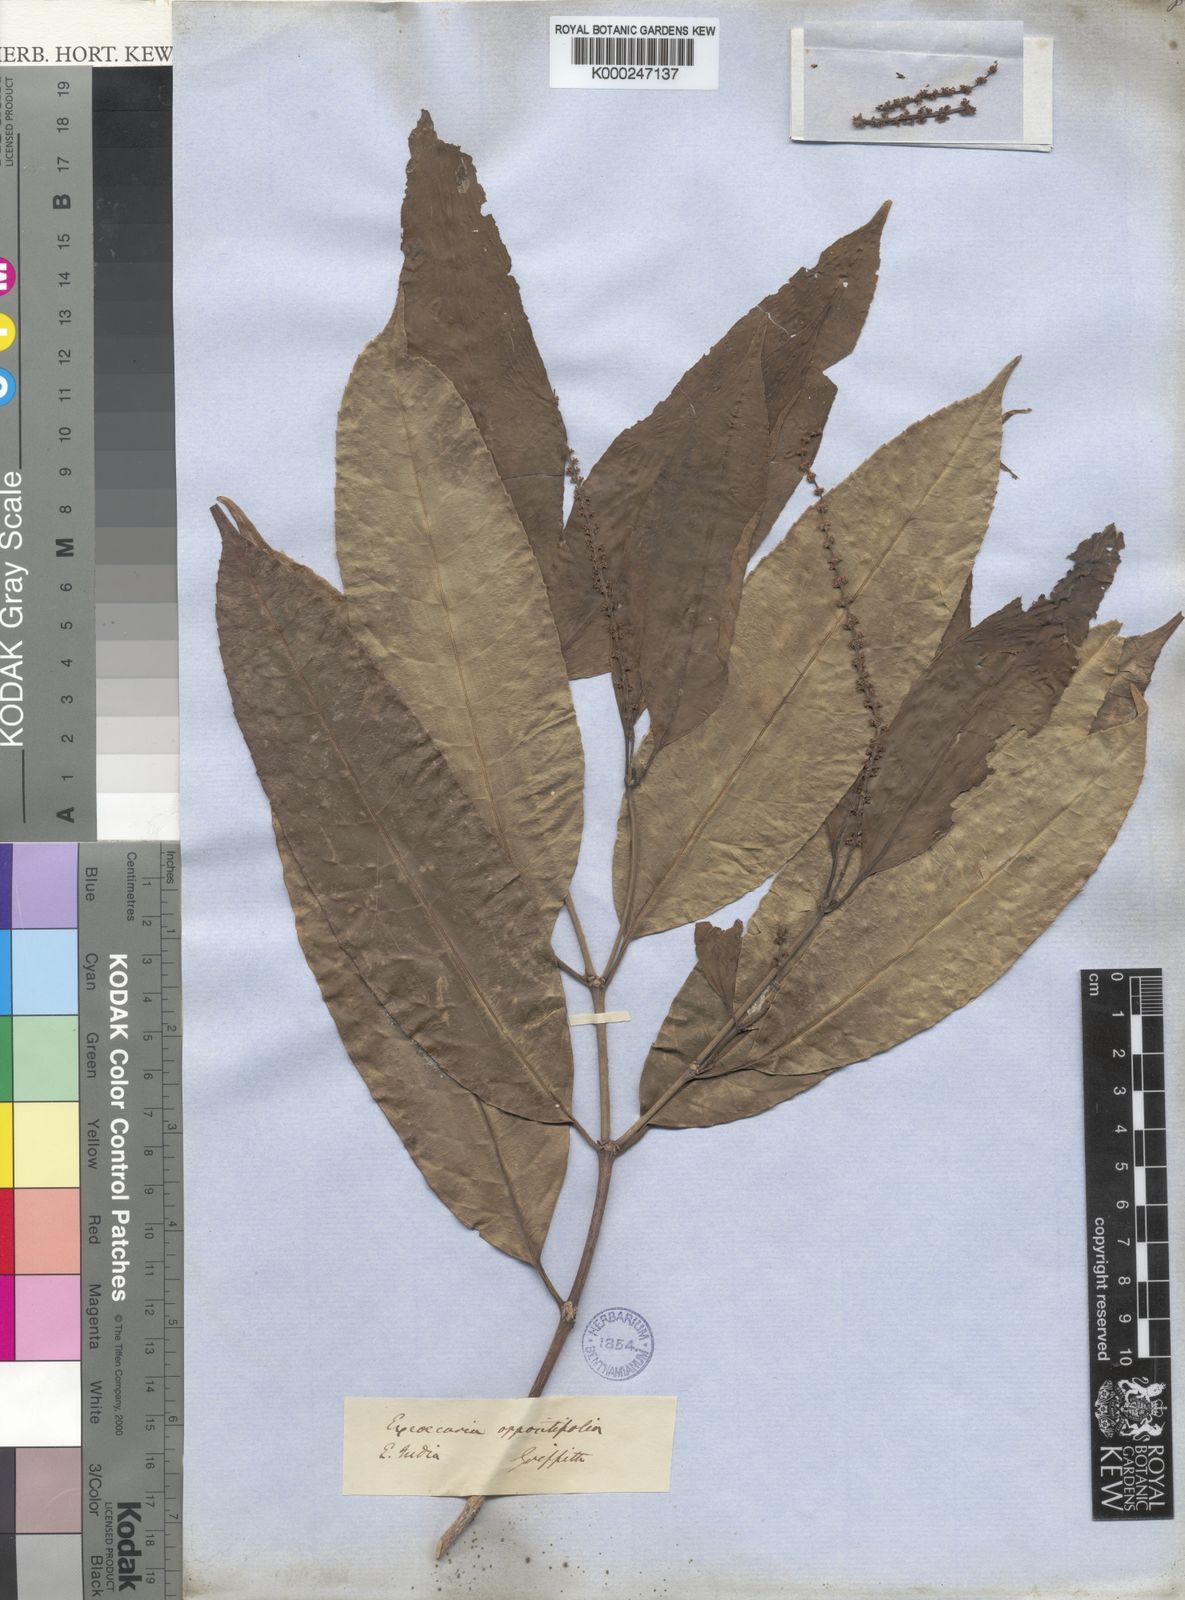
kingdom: Plantae
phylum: Tracheophyta
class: Magnoliopsida
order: Malpighiales
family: Euphorbiaceae
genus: Excoecaria
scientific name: Excoecaria oppositifolia
